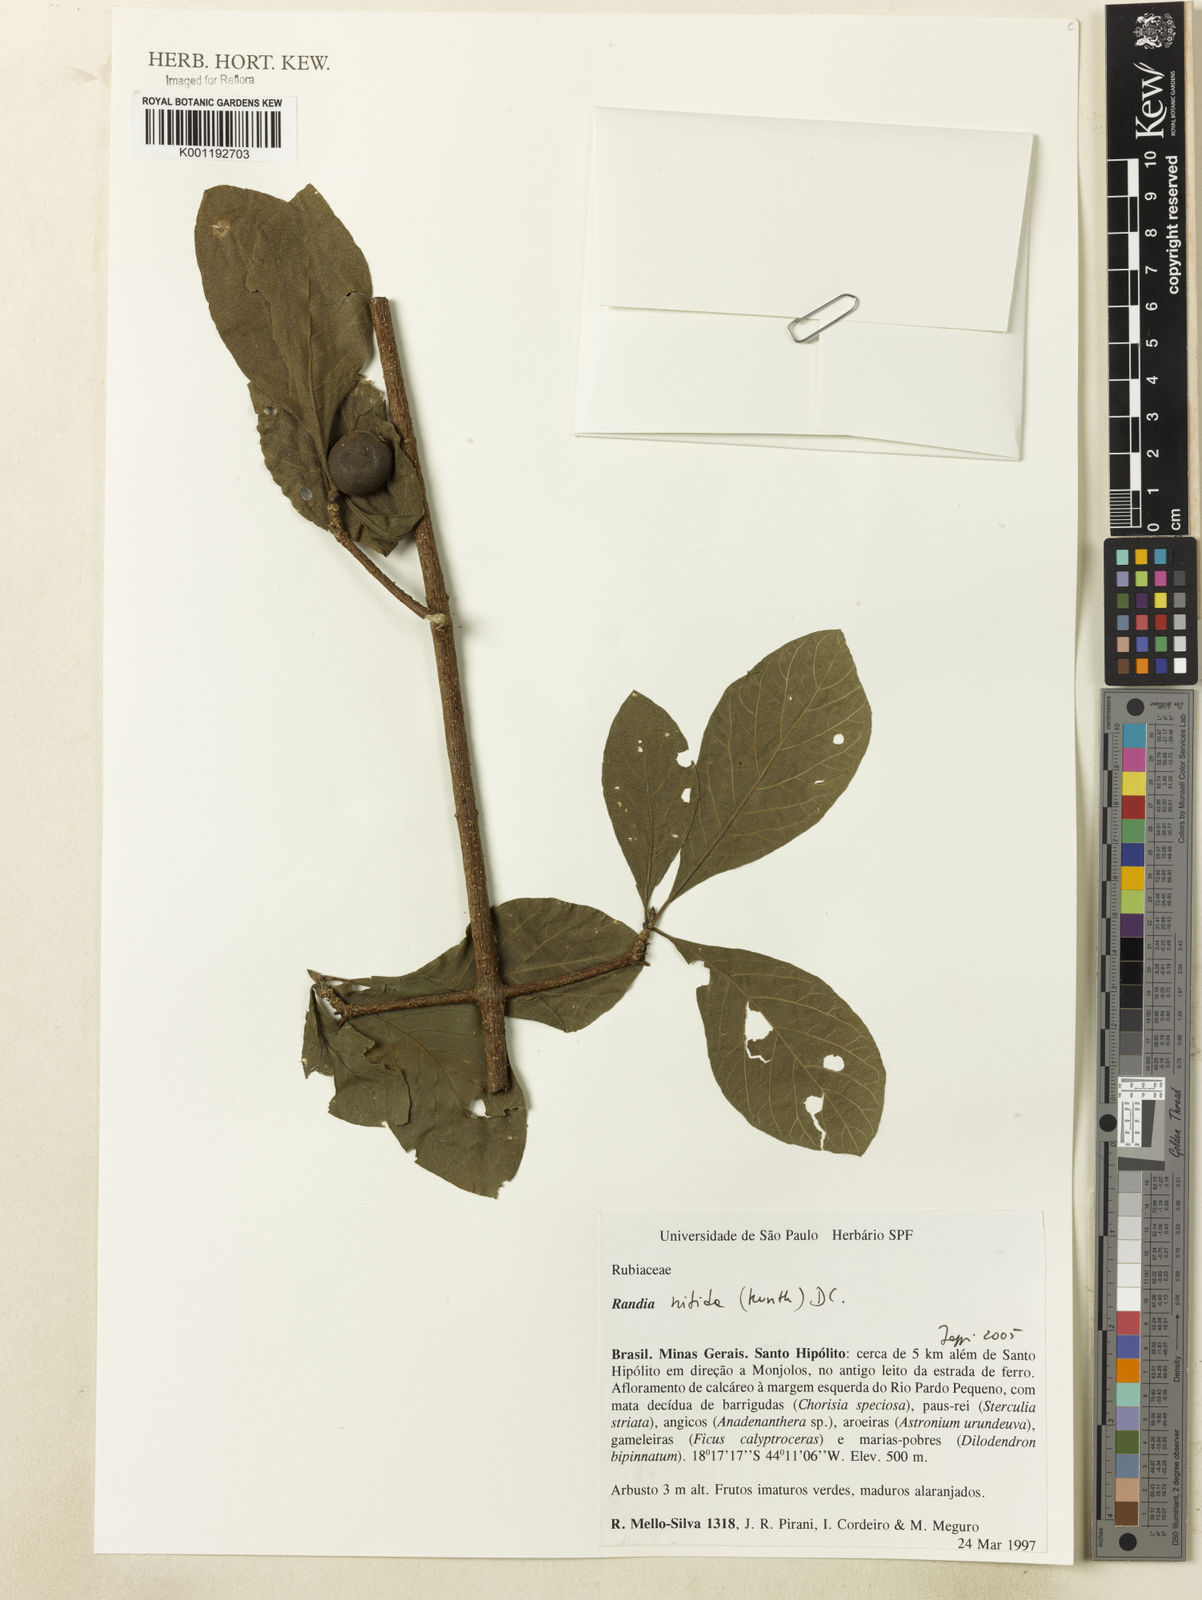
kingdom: Plantae
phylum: Tracheophyta
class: Magnoliopsida
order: Gentianales
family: Rubiaceae
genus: Randia
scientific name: Randia nitida
